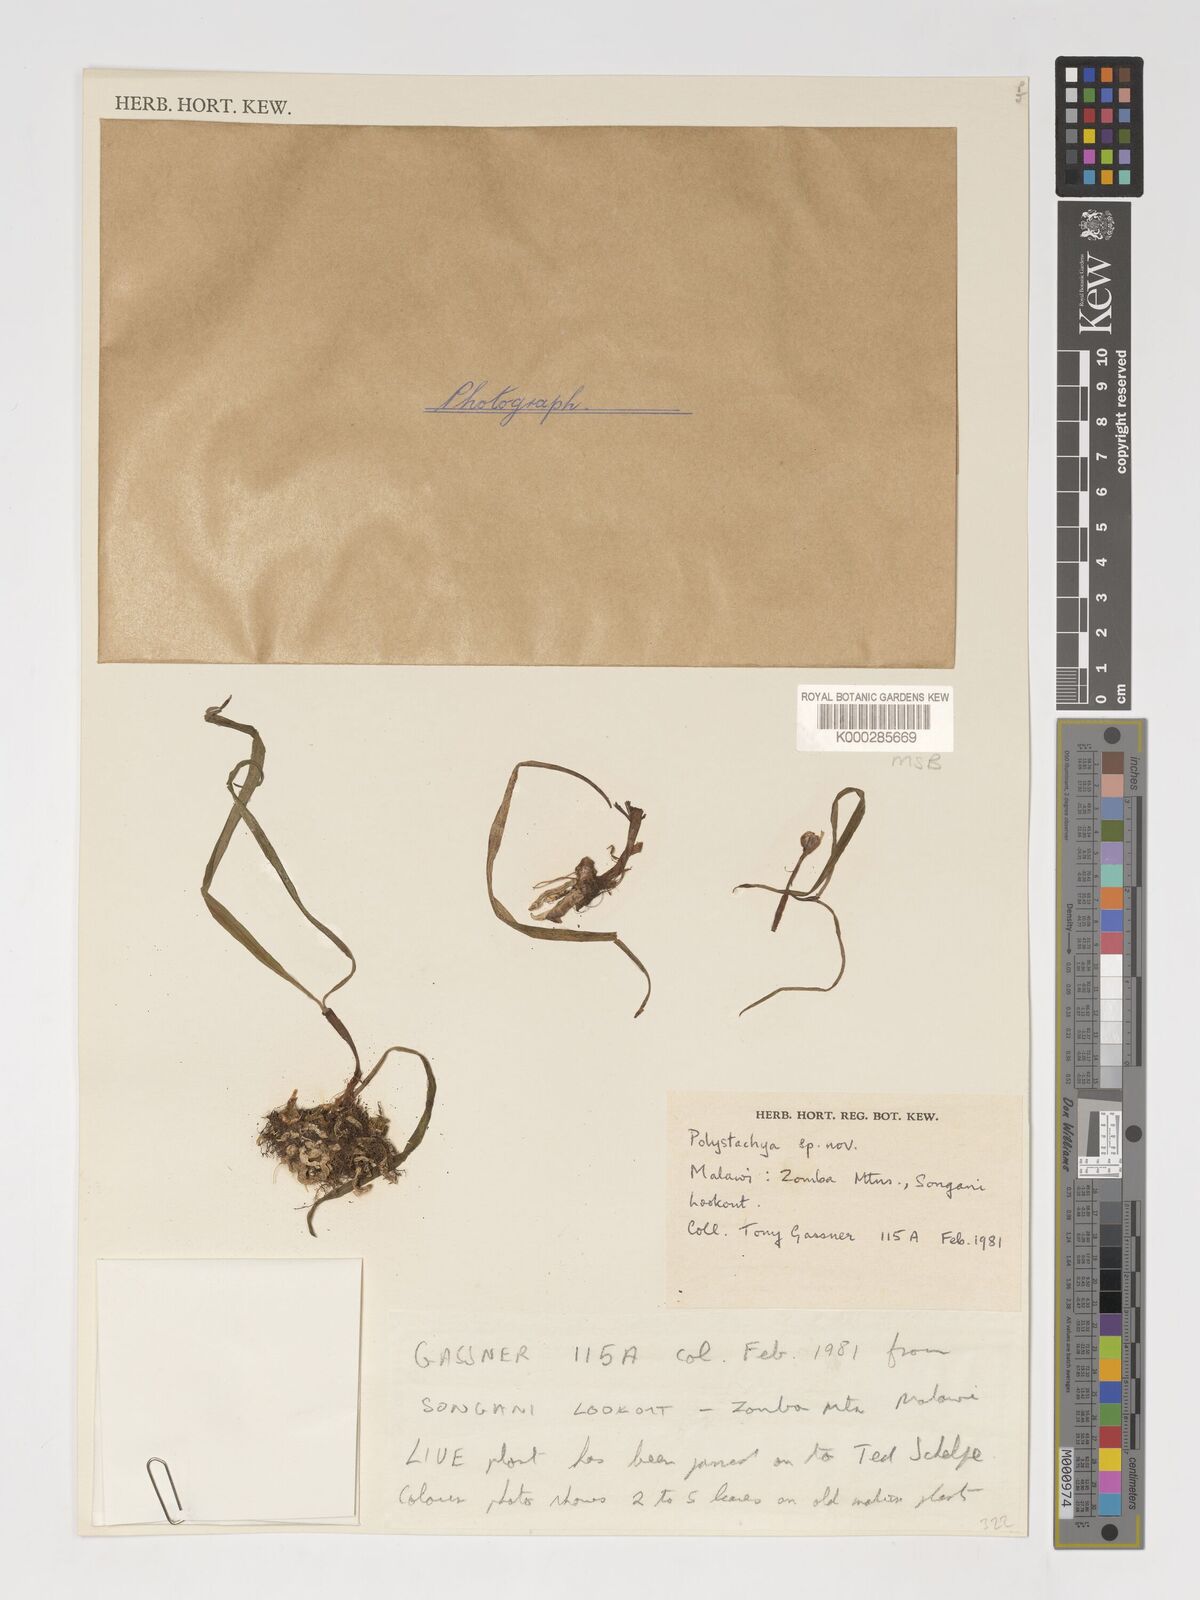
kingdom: Plantae
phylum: Tracheophyta
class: Liliopsida
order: Asparagales
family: Orchidaceae
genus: Polystachya
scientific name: Polystachya songaniensis
